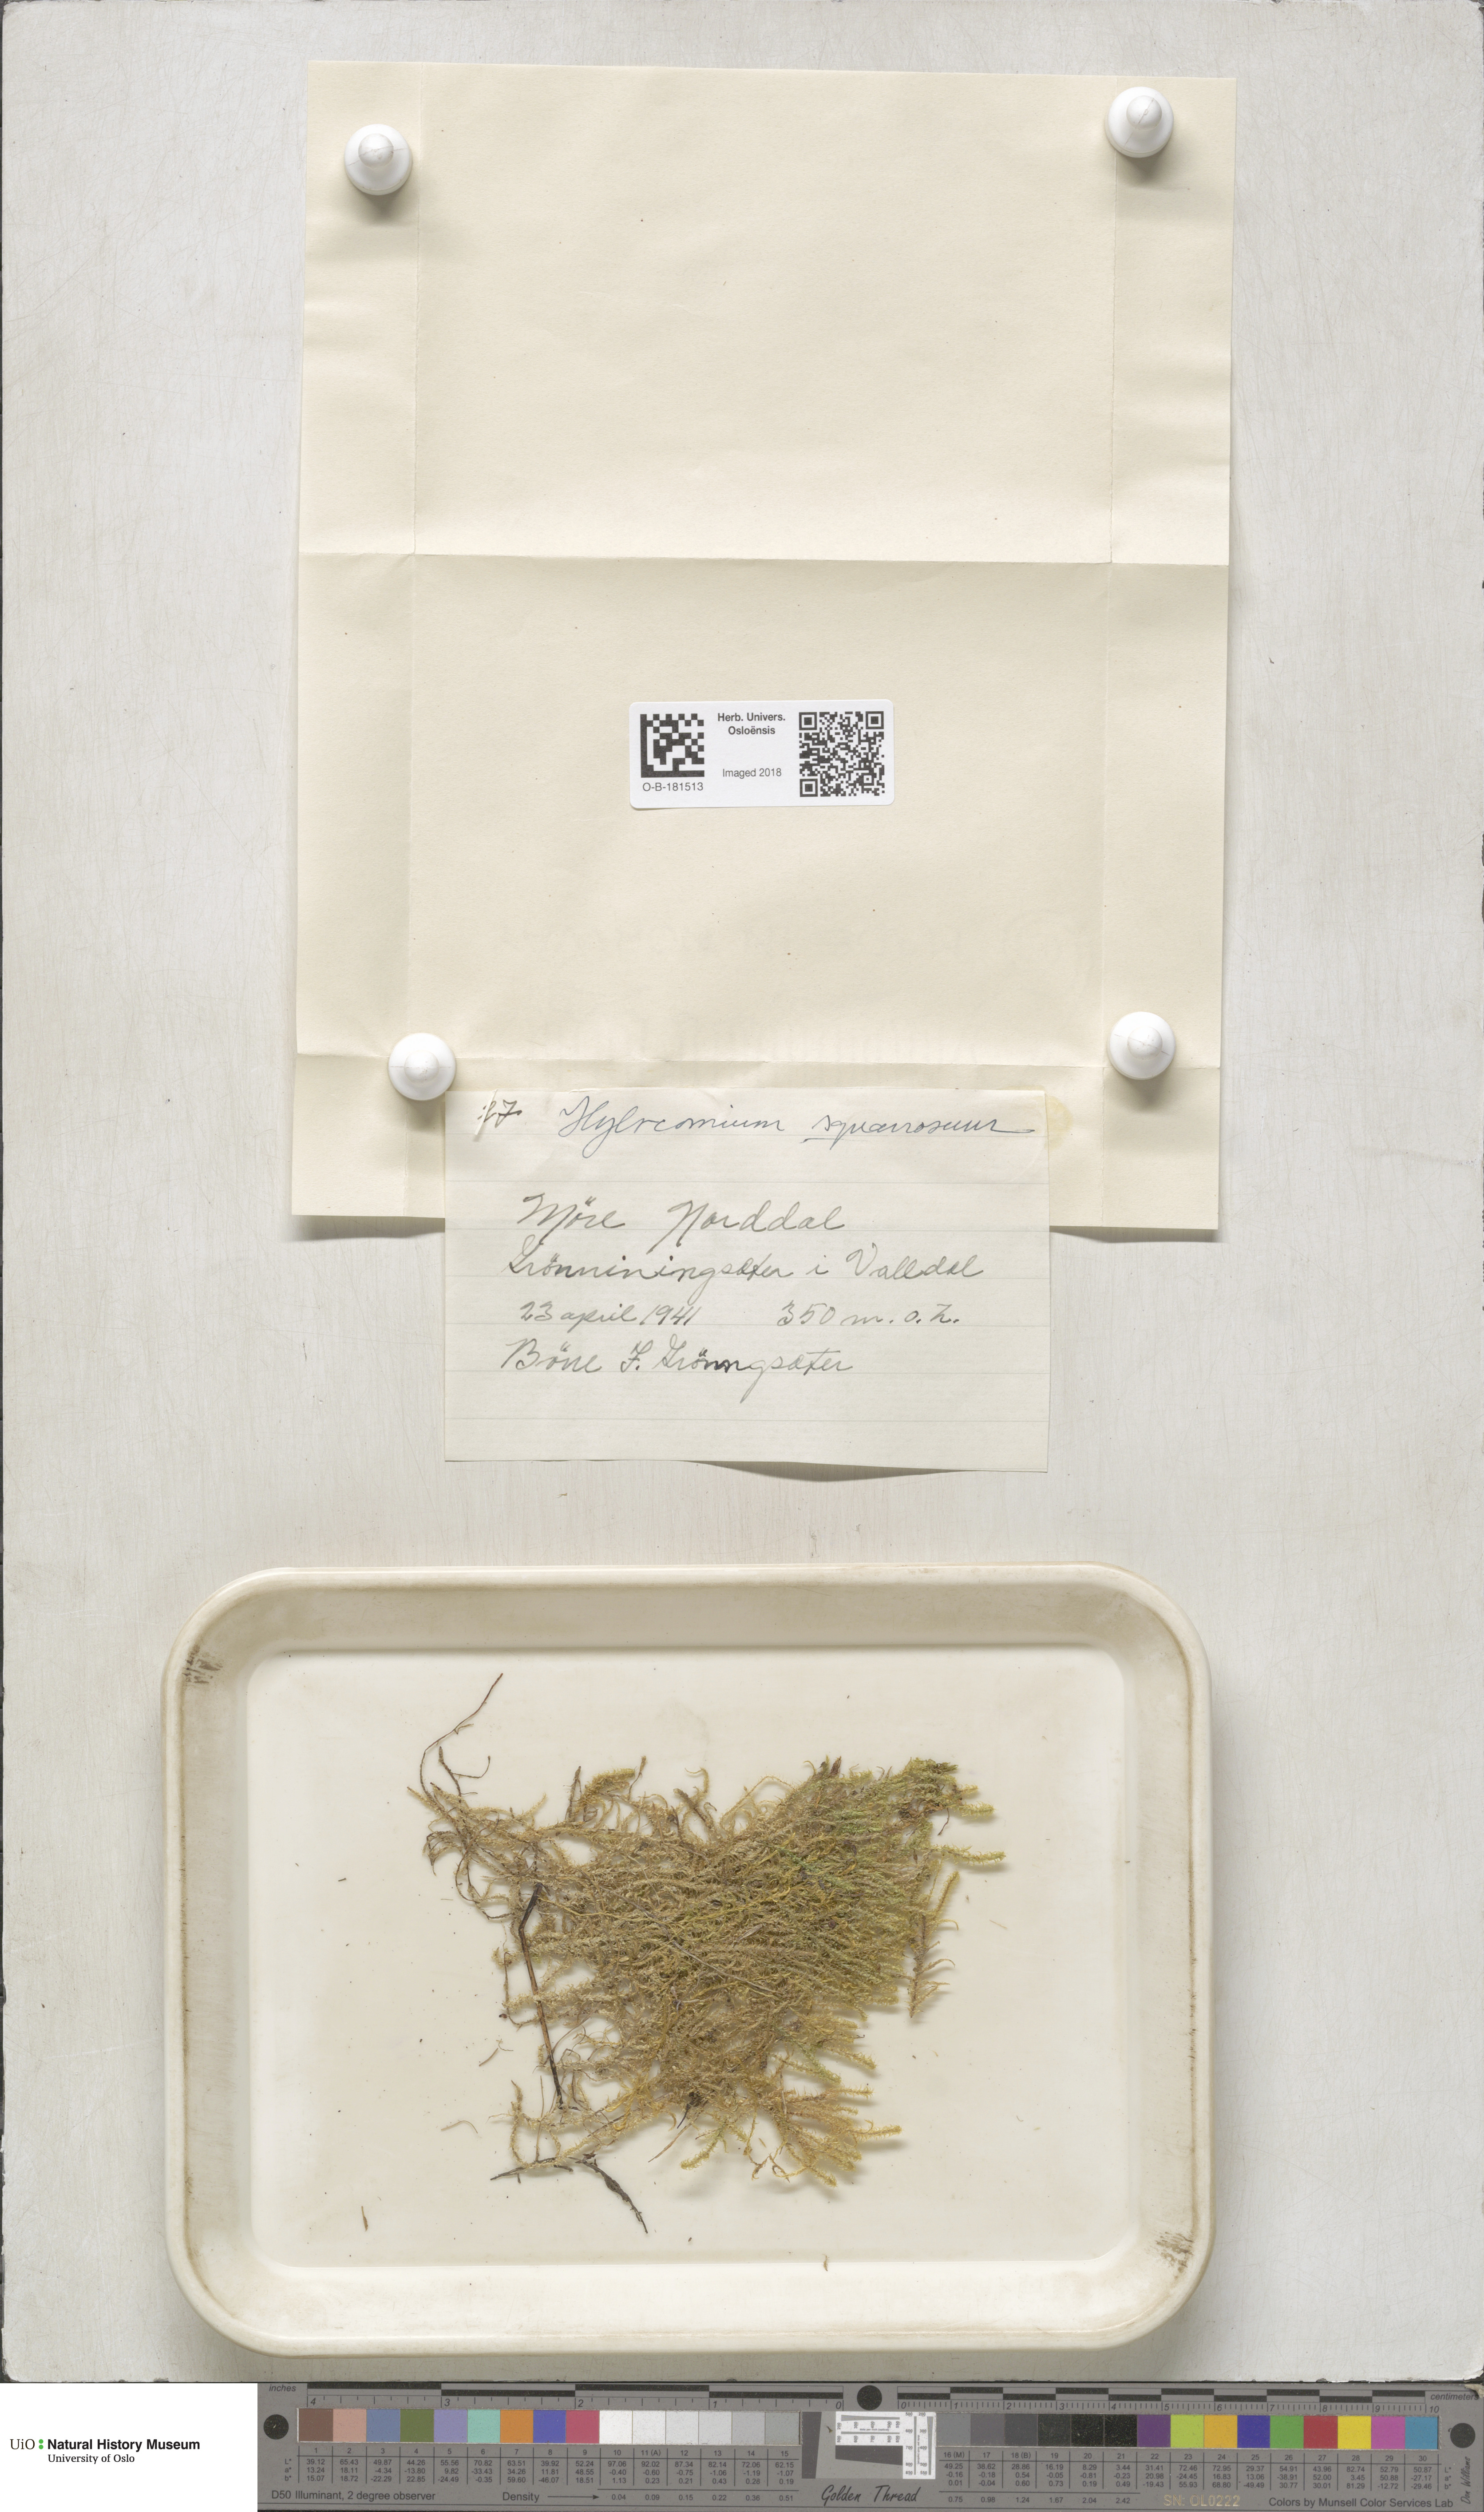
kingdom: Plantae
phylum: Bryophyta
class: Bryopsida
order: Hypnales
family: Hylocomiaceae
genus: Rhytidiadelphus
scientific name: Rhytidiadelphus squarrosus
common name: Springy turf-moss
